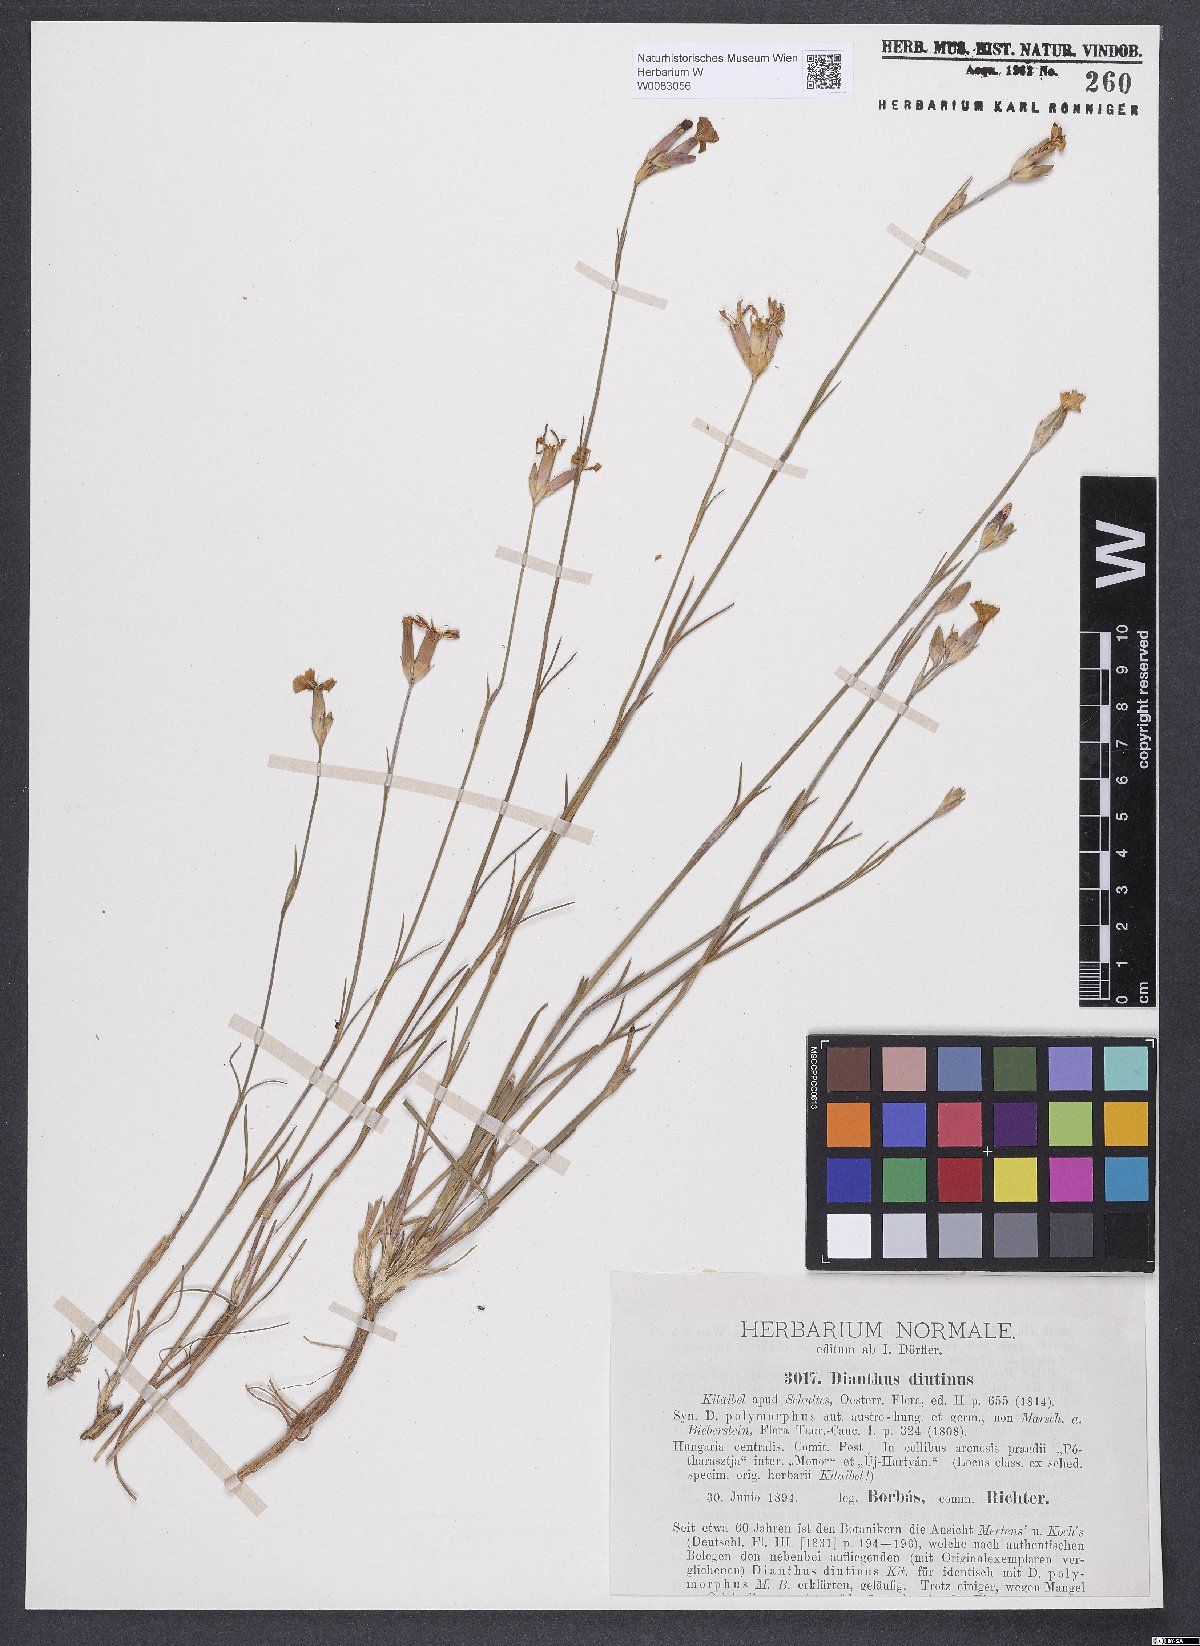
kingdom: Plantae
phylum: Tracheophyta
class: Magnoliopsida
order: Caryophyllales
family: Caryophyllaceae
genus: Dianthus
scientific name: Dianthus polymorphus
